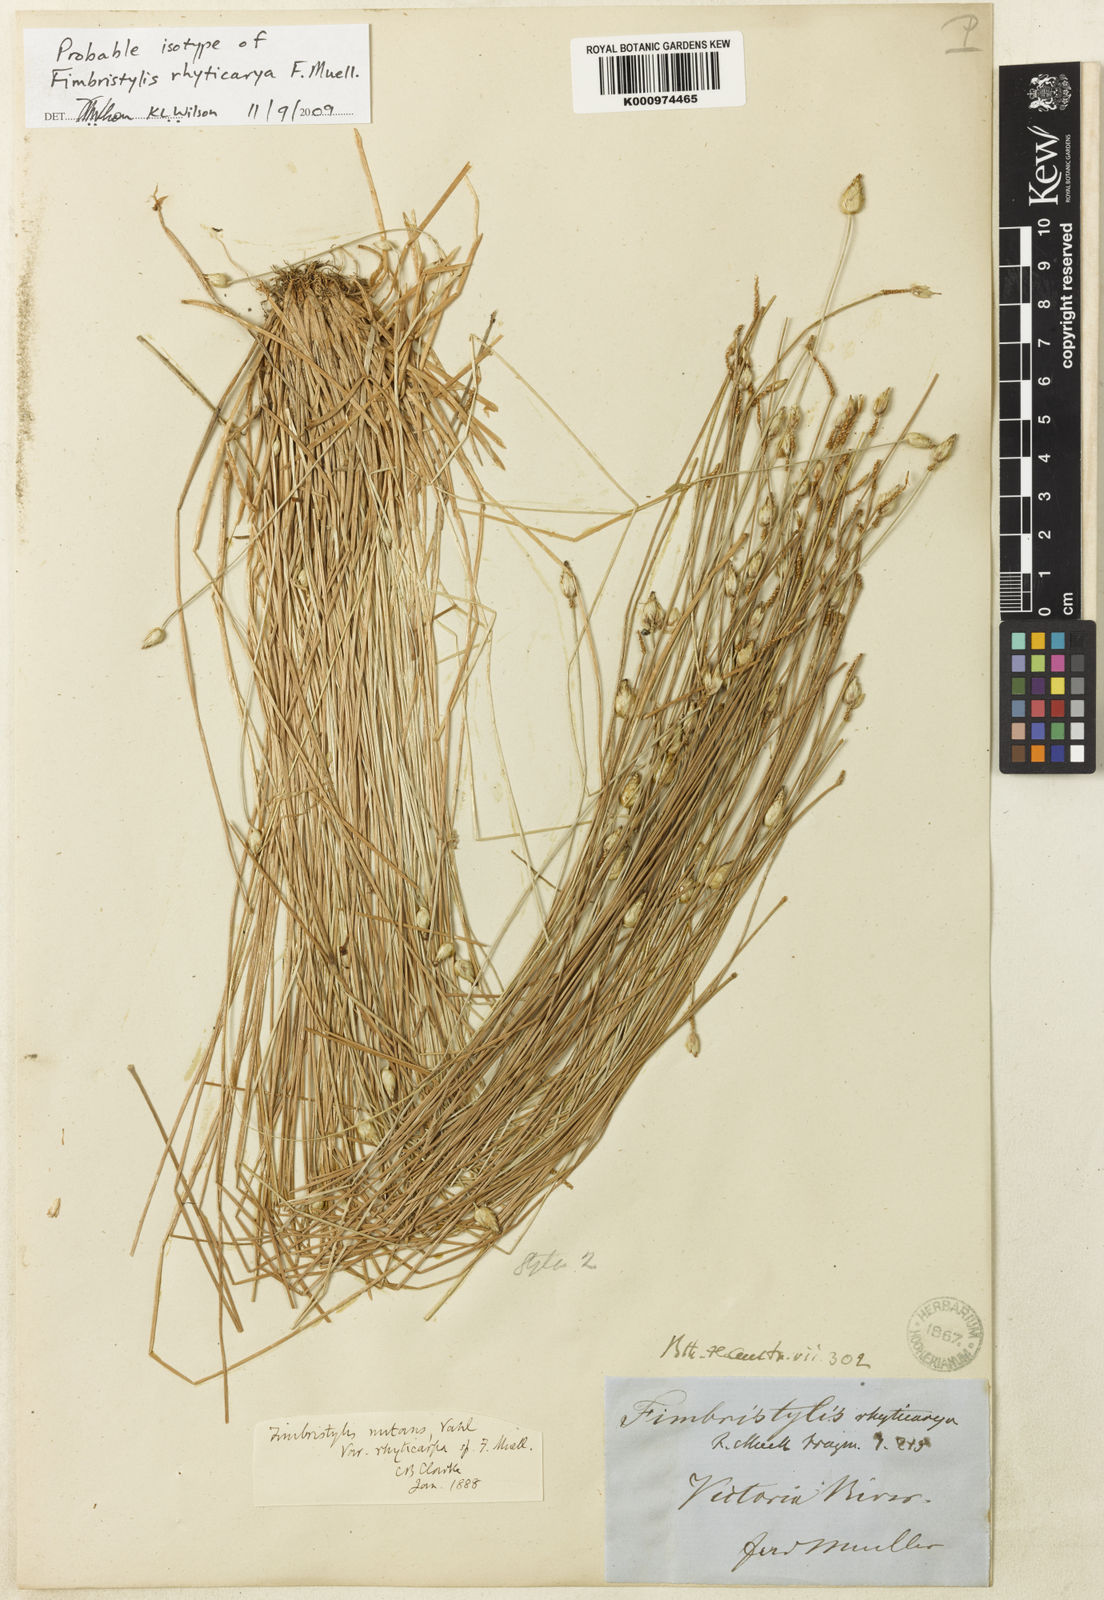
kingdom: Plantae
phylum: Tracheophyta
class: Liliopsida
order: Poales
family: Cyperaceae
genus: Fimbristylis
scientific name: Fimbristylis rhyticarya
